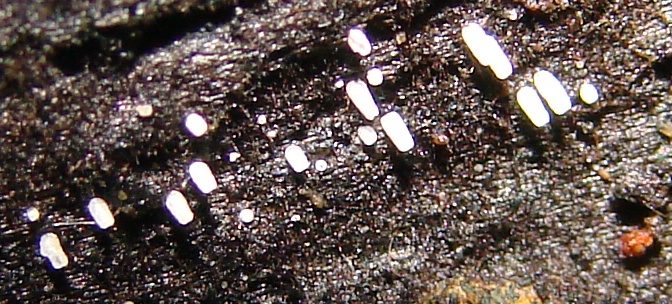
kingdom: Fungi
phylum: Basidiomycota
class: Agaricomycetes
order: Agaricales
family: Marasmiaceae
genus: Henningsomyces
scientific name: Henningsomyces candidus
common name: glat hængerør
